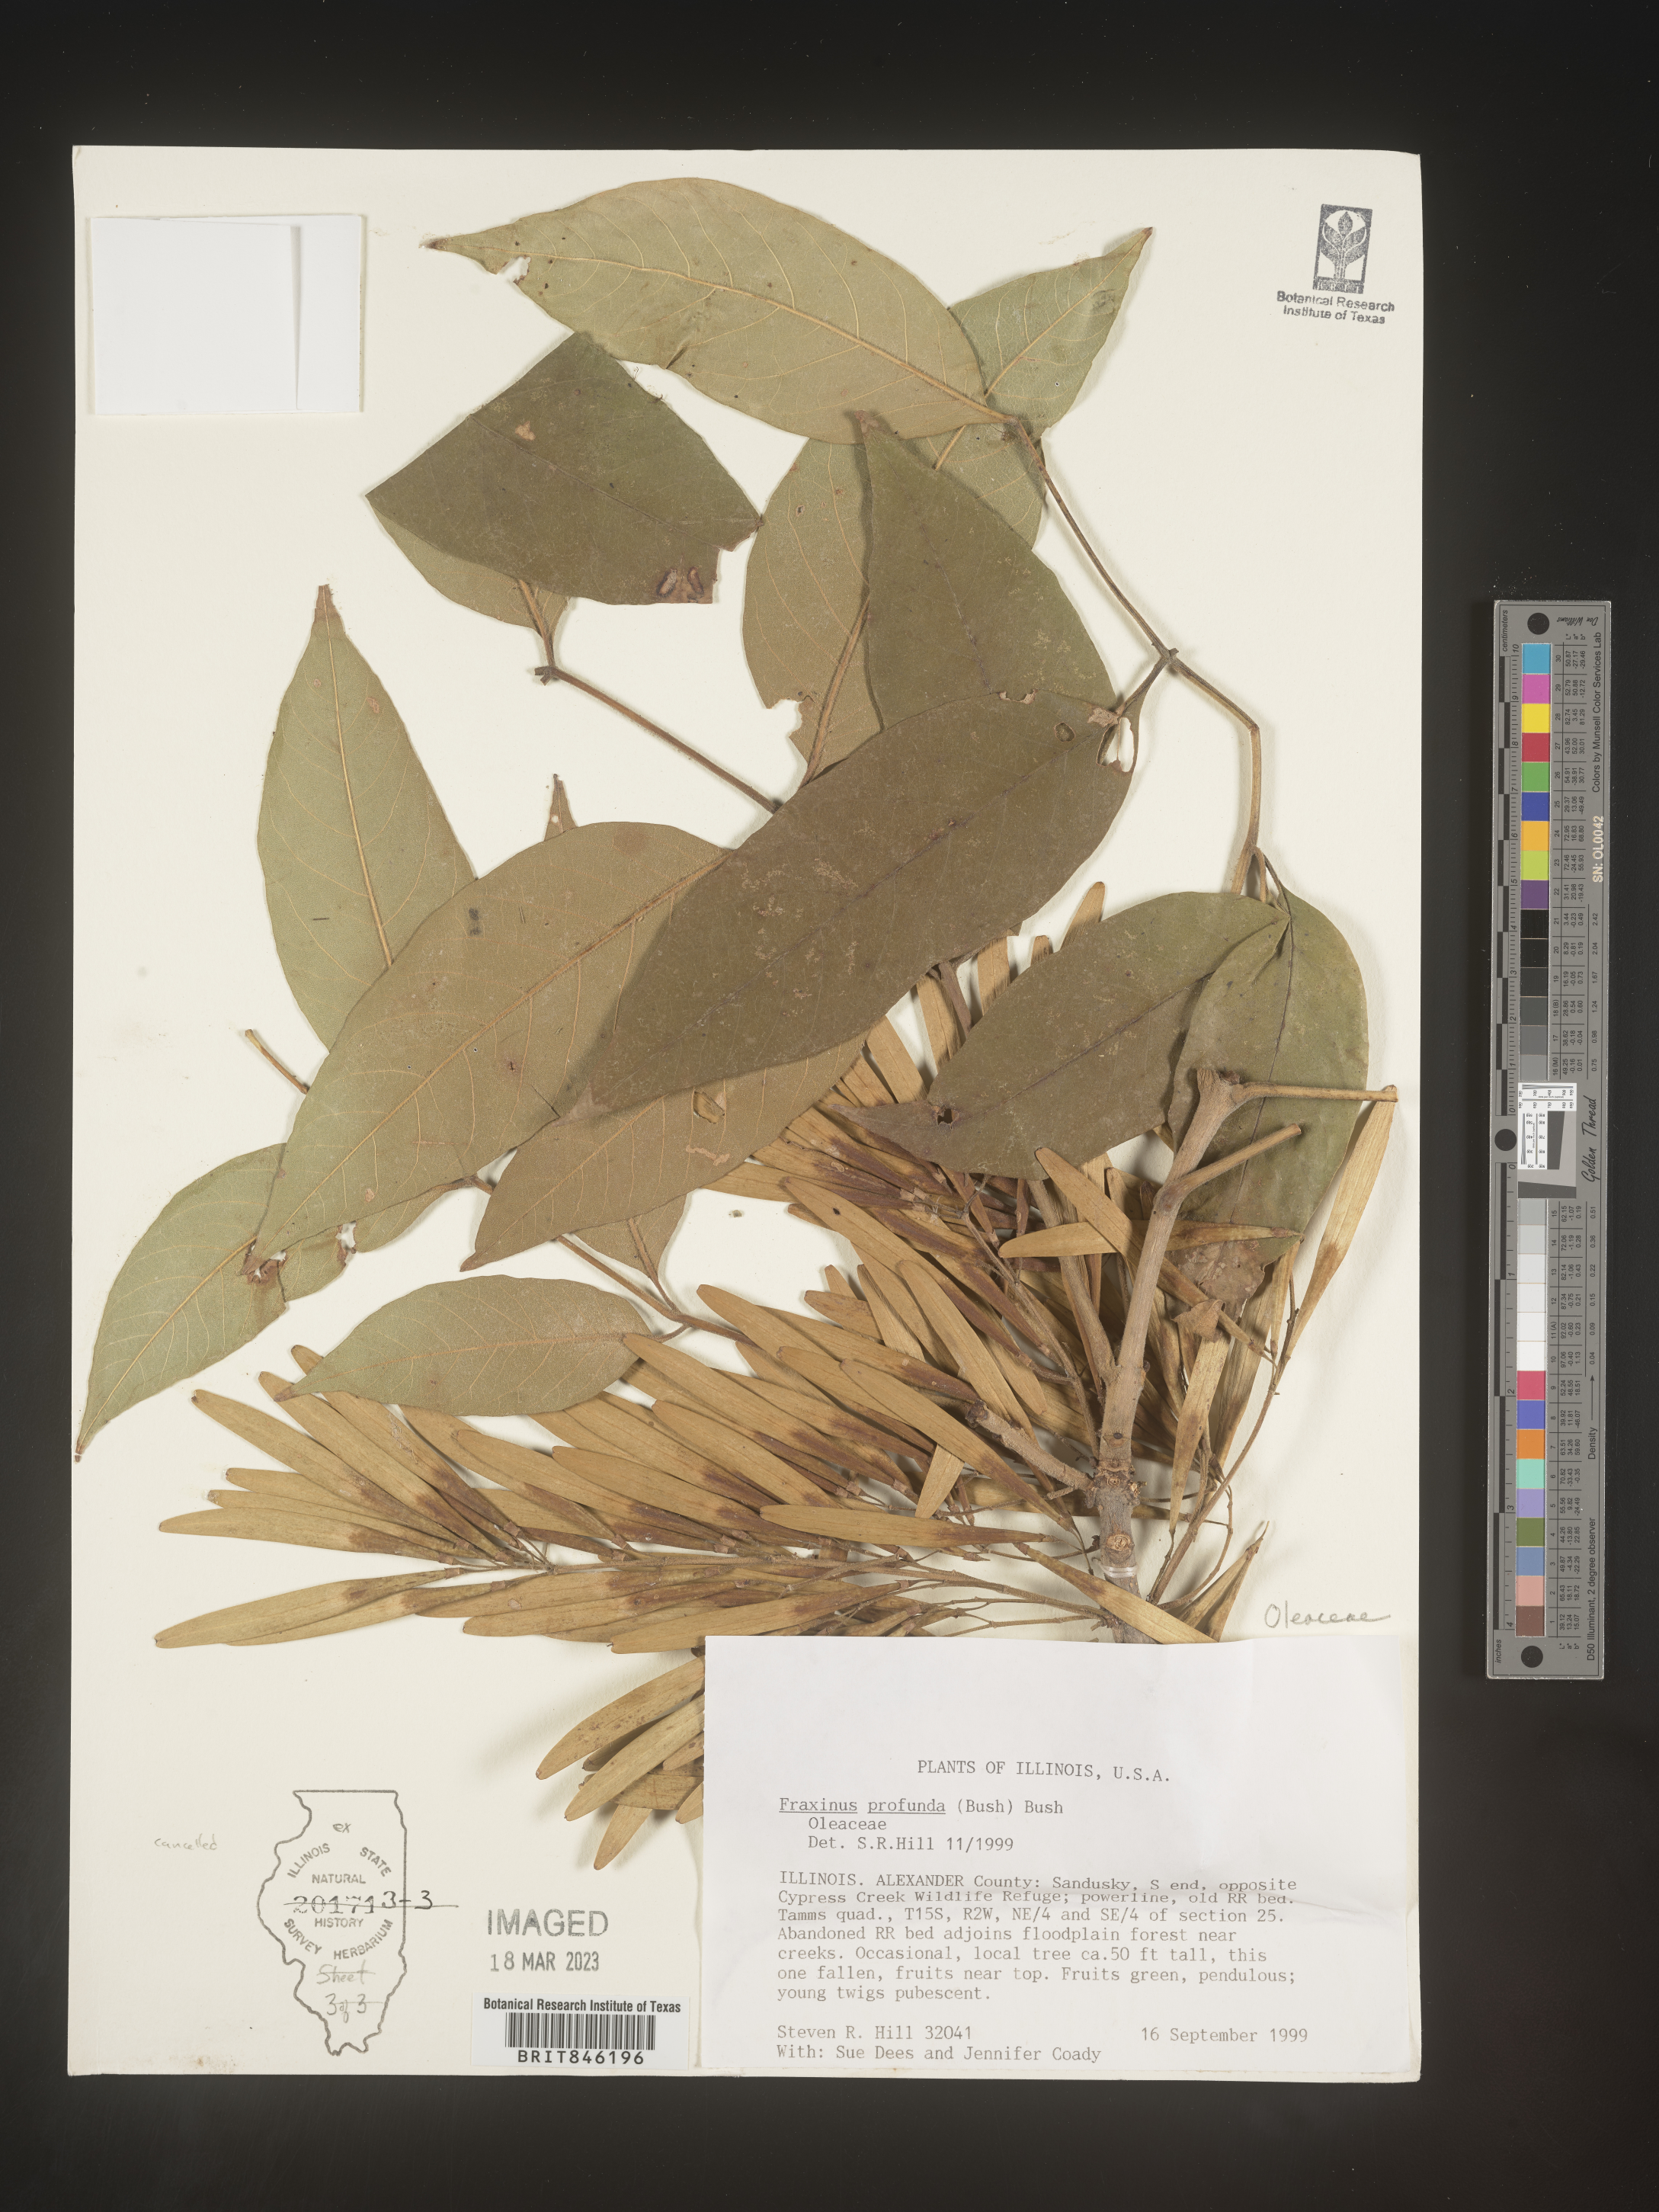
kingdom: Plantae
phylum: Tracheophyta
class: Magnoliopsida
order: Lamiales
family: Oleaceae
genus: Fraxinus
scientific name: Fraxinus profunda
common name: Pumpkin ash
